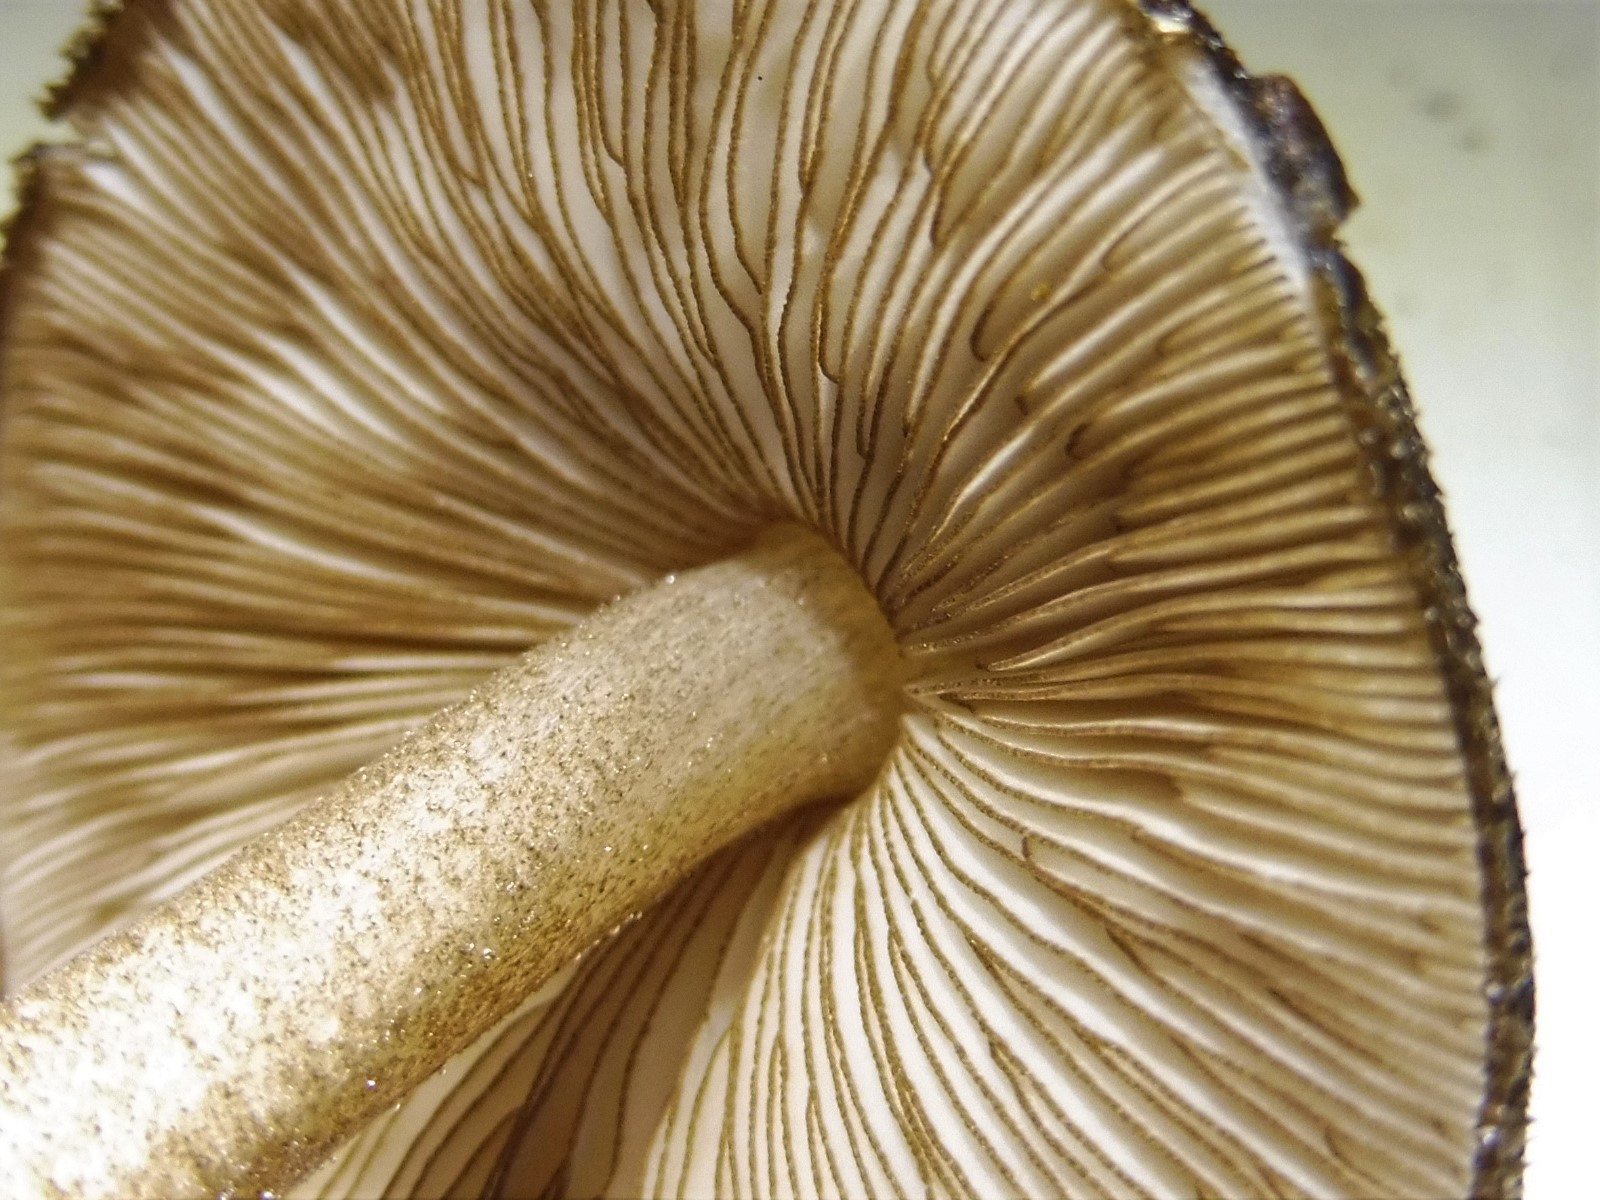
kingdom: Fungi
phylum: Basidiomycota
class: Agaricomycetes
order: Agaricales
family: Pluteaceae
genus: Pluteus
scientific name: Pluteus umbrosus
